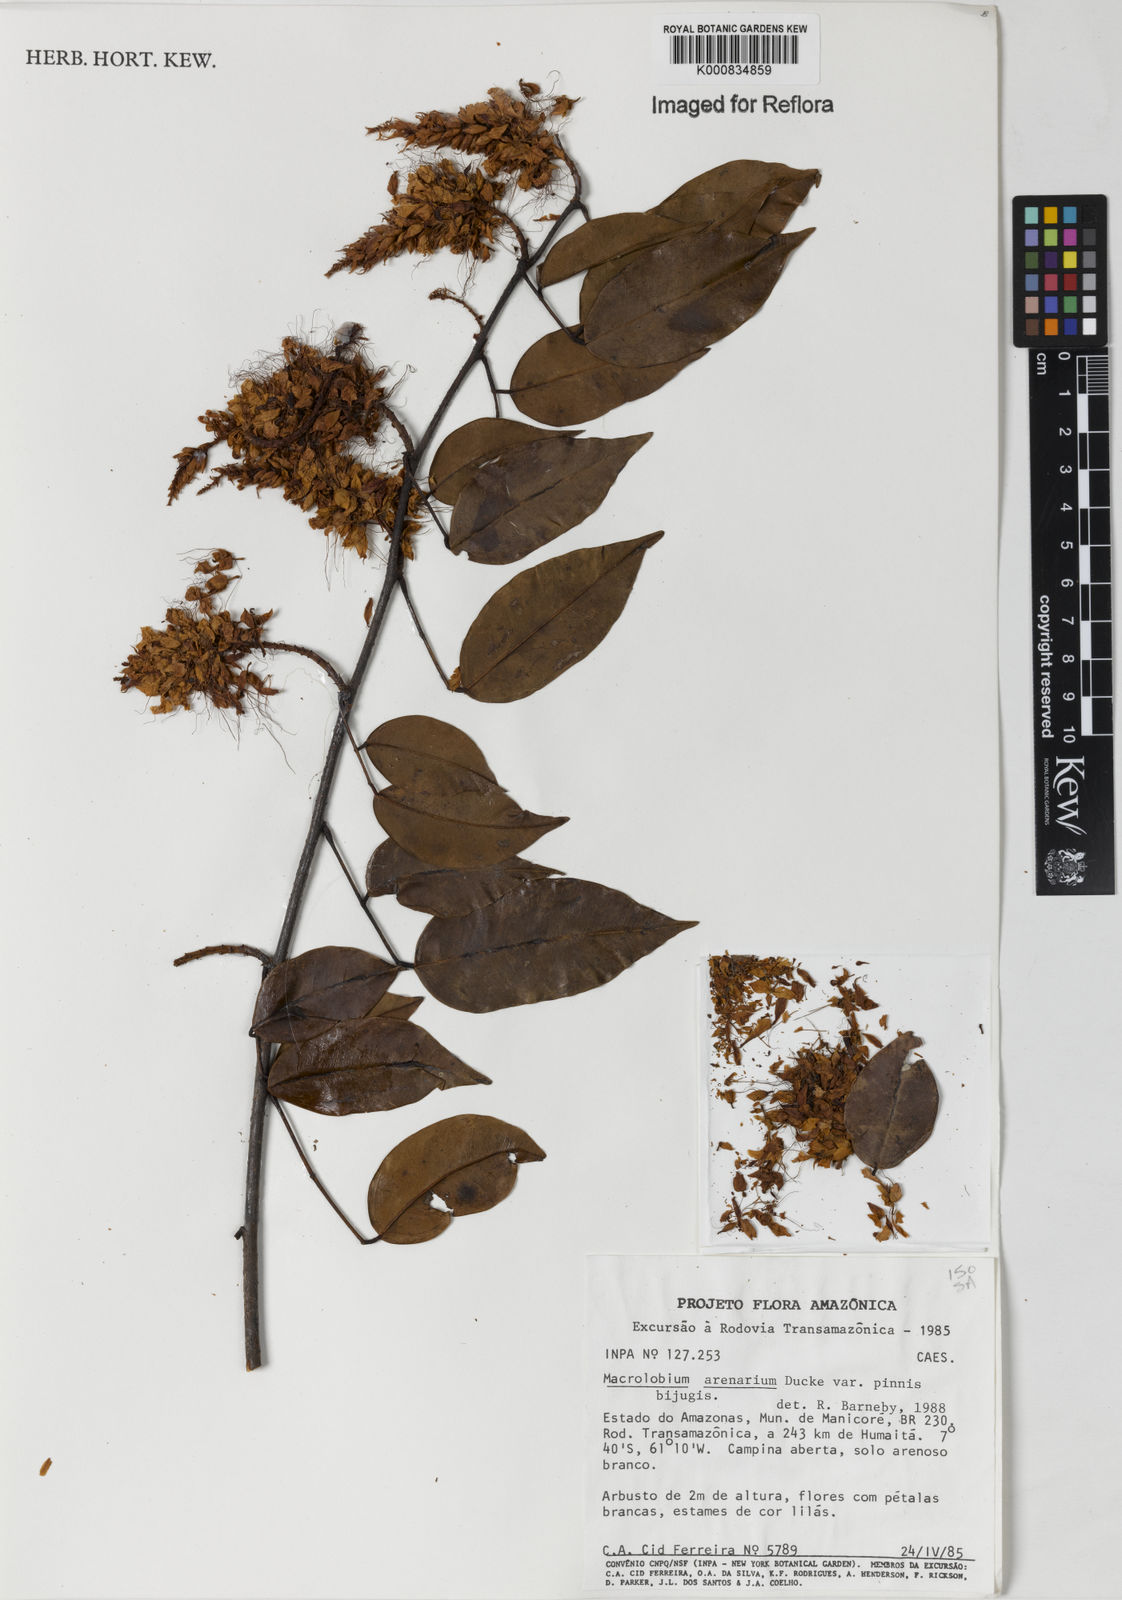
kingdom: Plantae
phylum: Tracheophyta
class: Magnoliopsida
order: Fabales
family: Fabaceae
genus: Macrolobium
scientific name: Macrolobium arenarium
